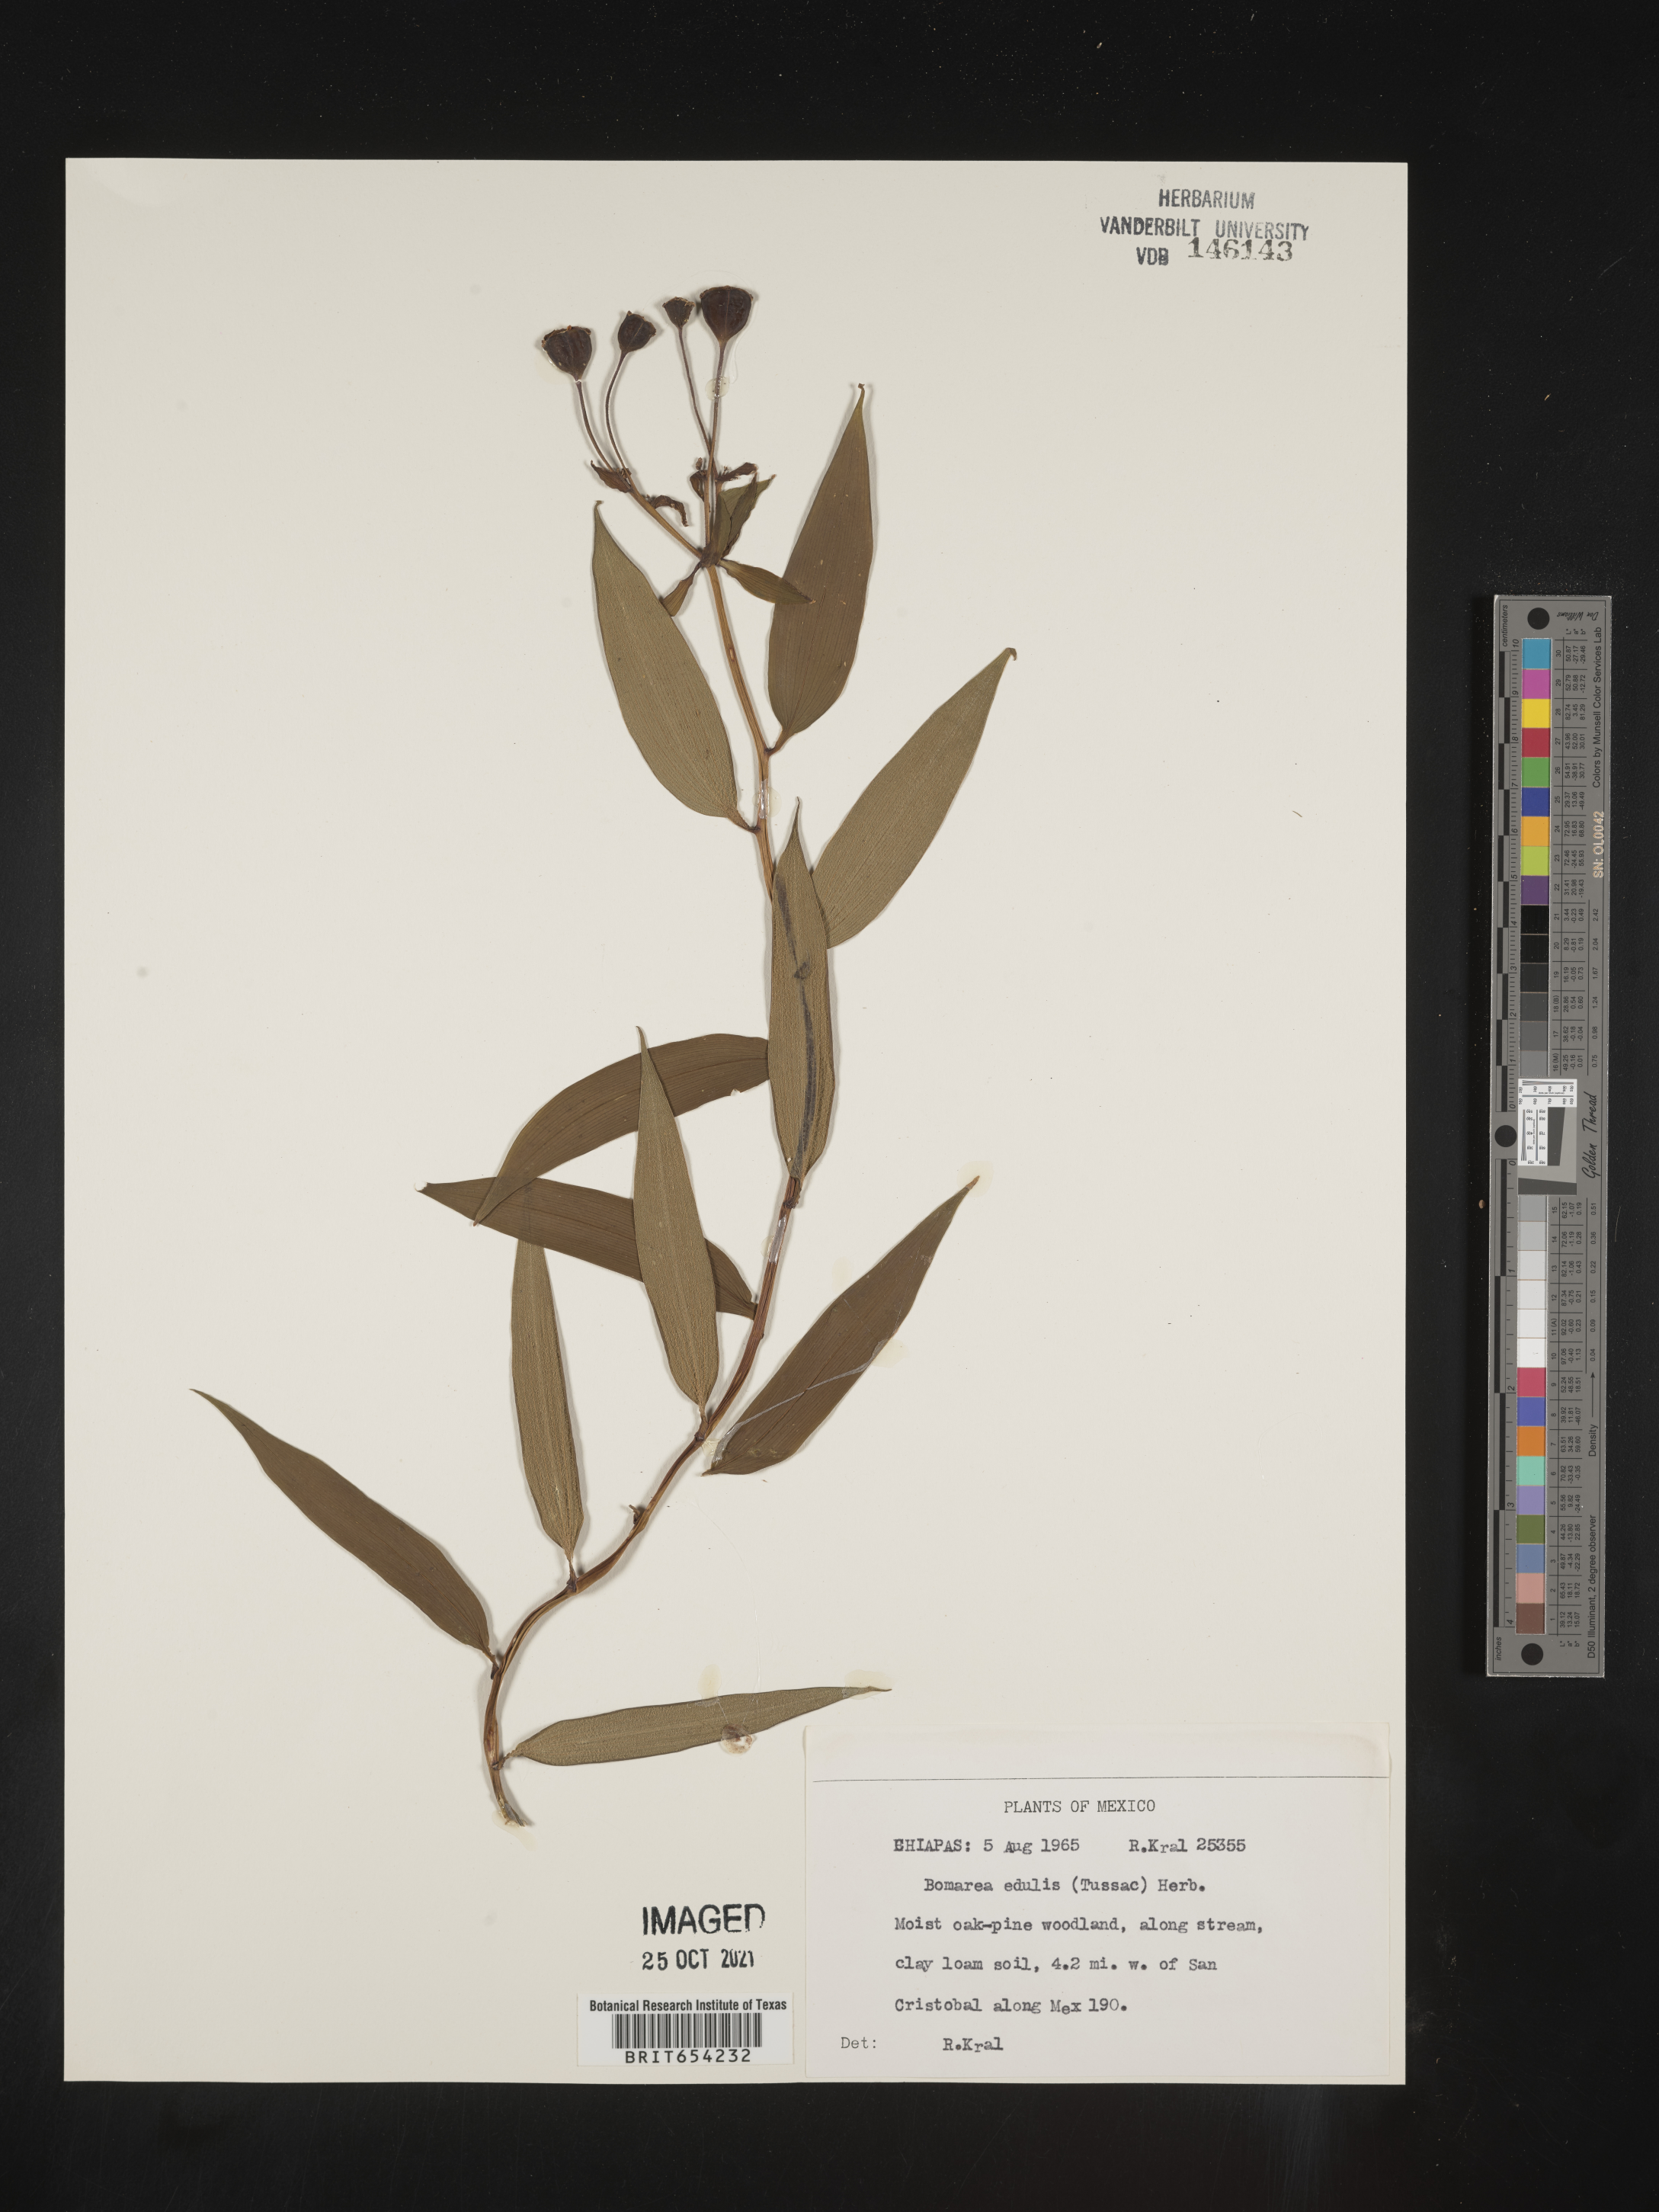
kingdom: Plantae
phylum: Tracheophyta
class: Liliopsida
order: Liliales
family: Alstroemeriaceae
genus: Bomarea
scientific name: Bomarea
